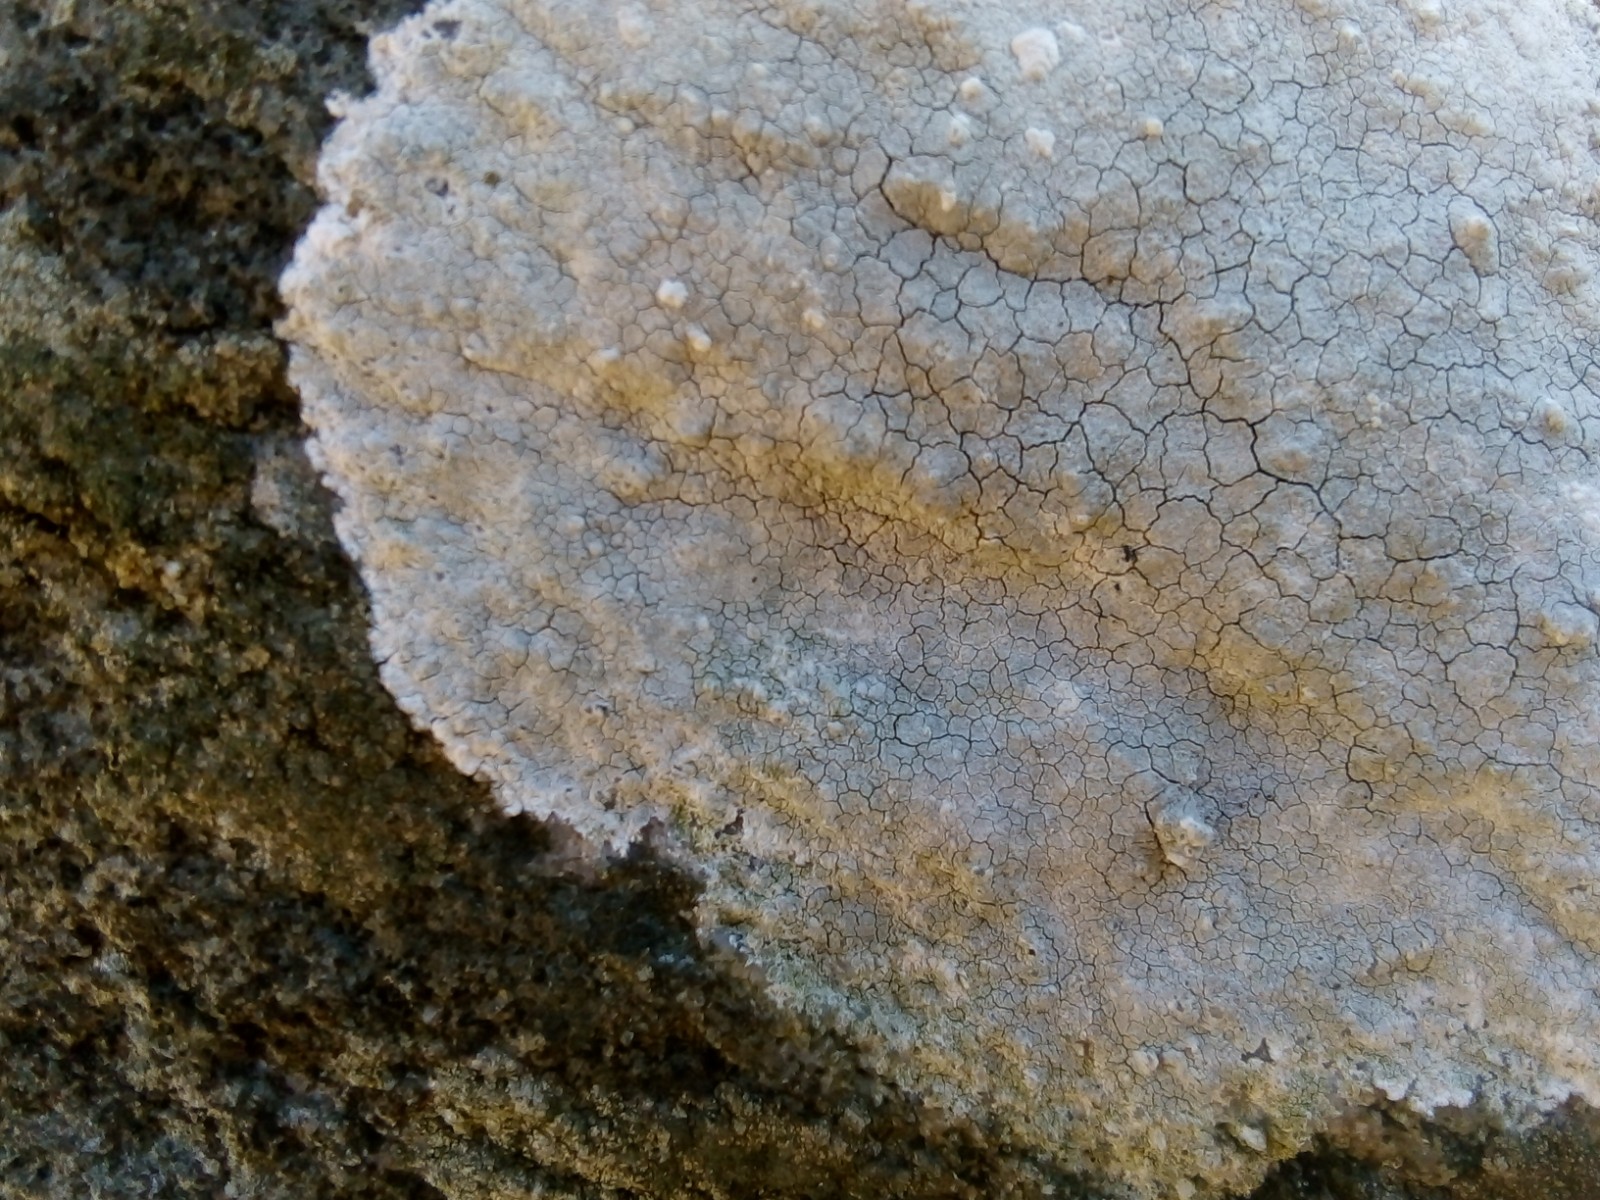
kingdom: Fungi
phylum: Ascomycota
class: Lecanoromycetes
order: Lecanorales
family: Lecanoraceae
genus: Glaucomaria
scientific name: Glaucomaria rupicola
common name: stengærde-kantskivelav
